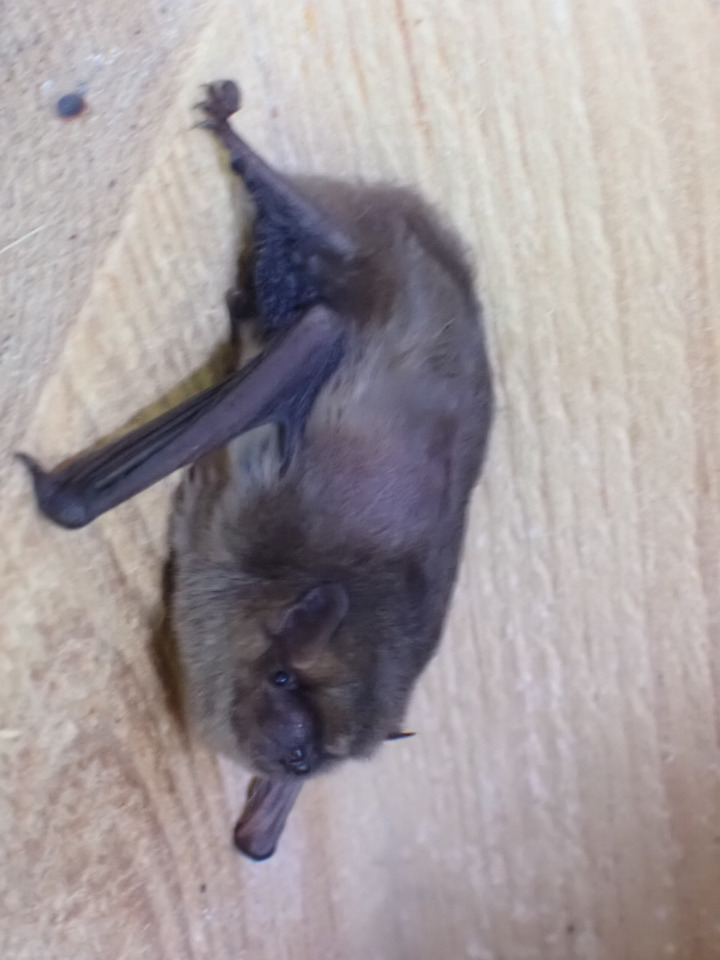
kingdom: Animalia
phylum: Chordata
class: Mammalia
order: Chiroptera
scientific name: Chiroptera
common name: Flagermus
